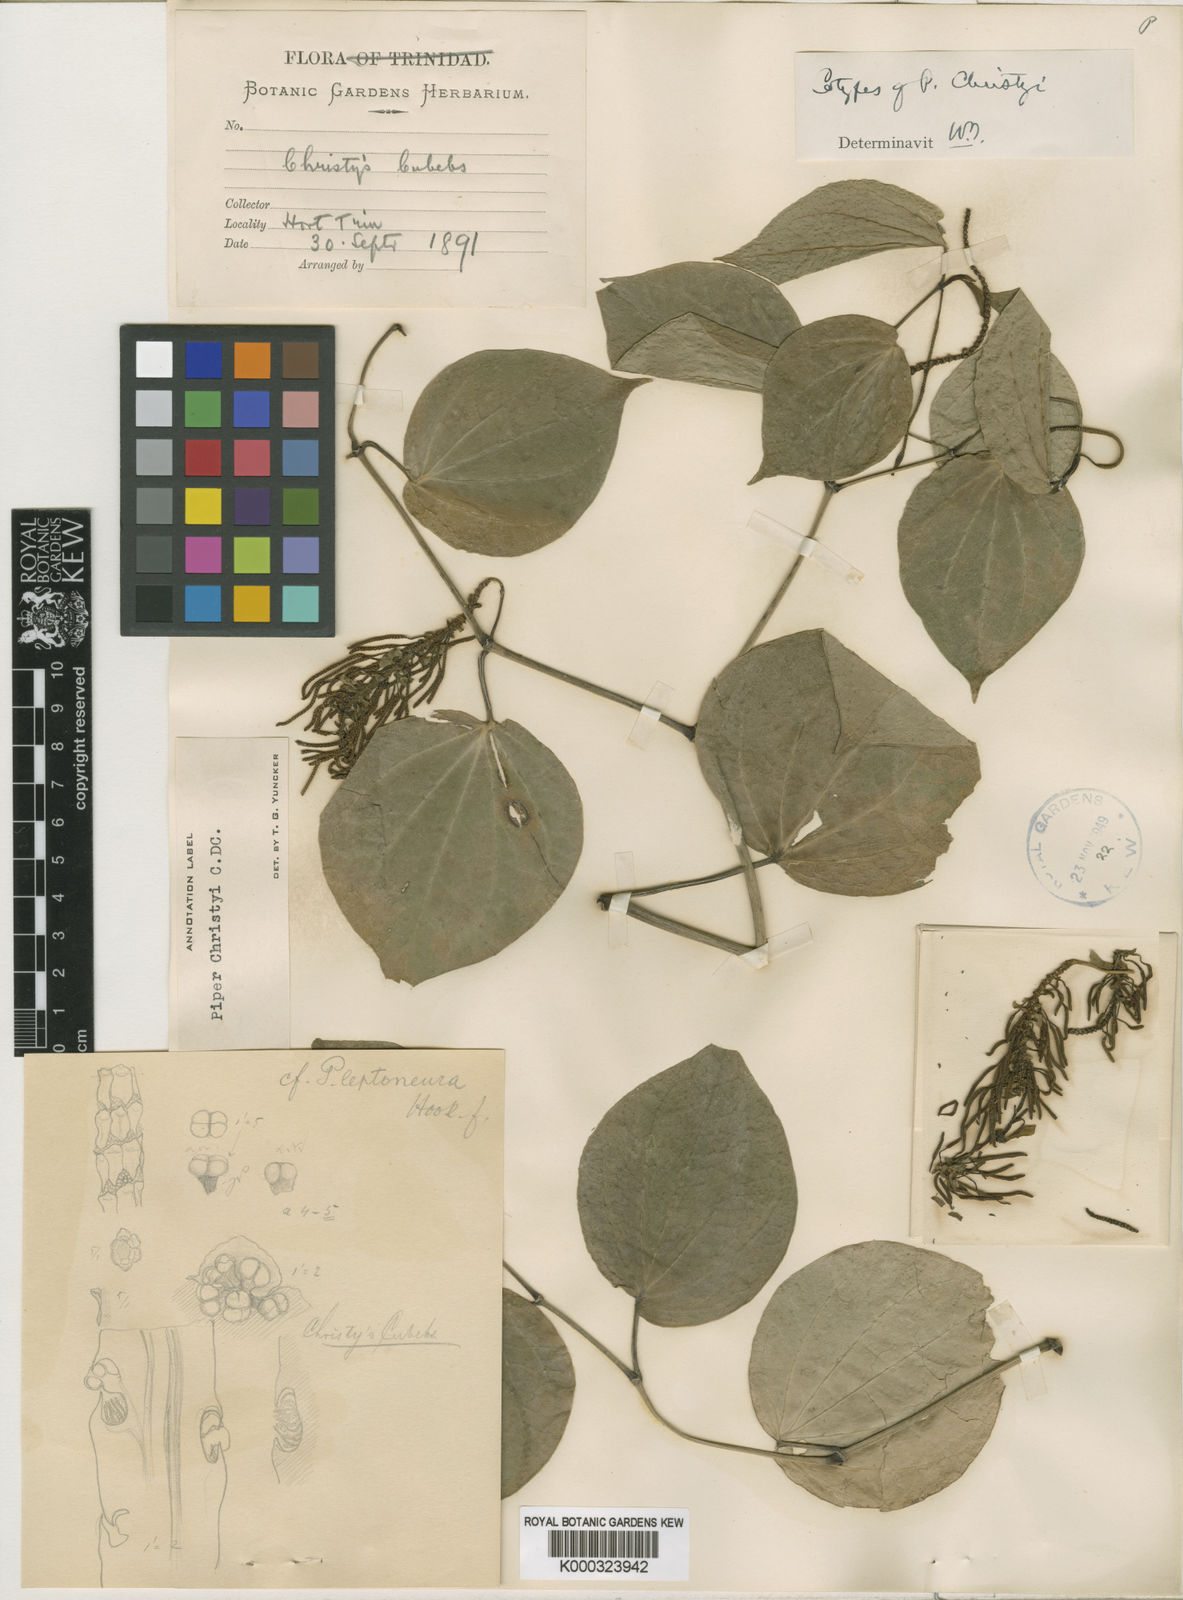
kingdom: Plantae
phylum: Tracheophyta
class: Magnoliopsida
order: Piperales
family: Piperaceae
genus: Piper
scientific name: Piper christyi
